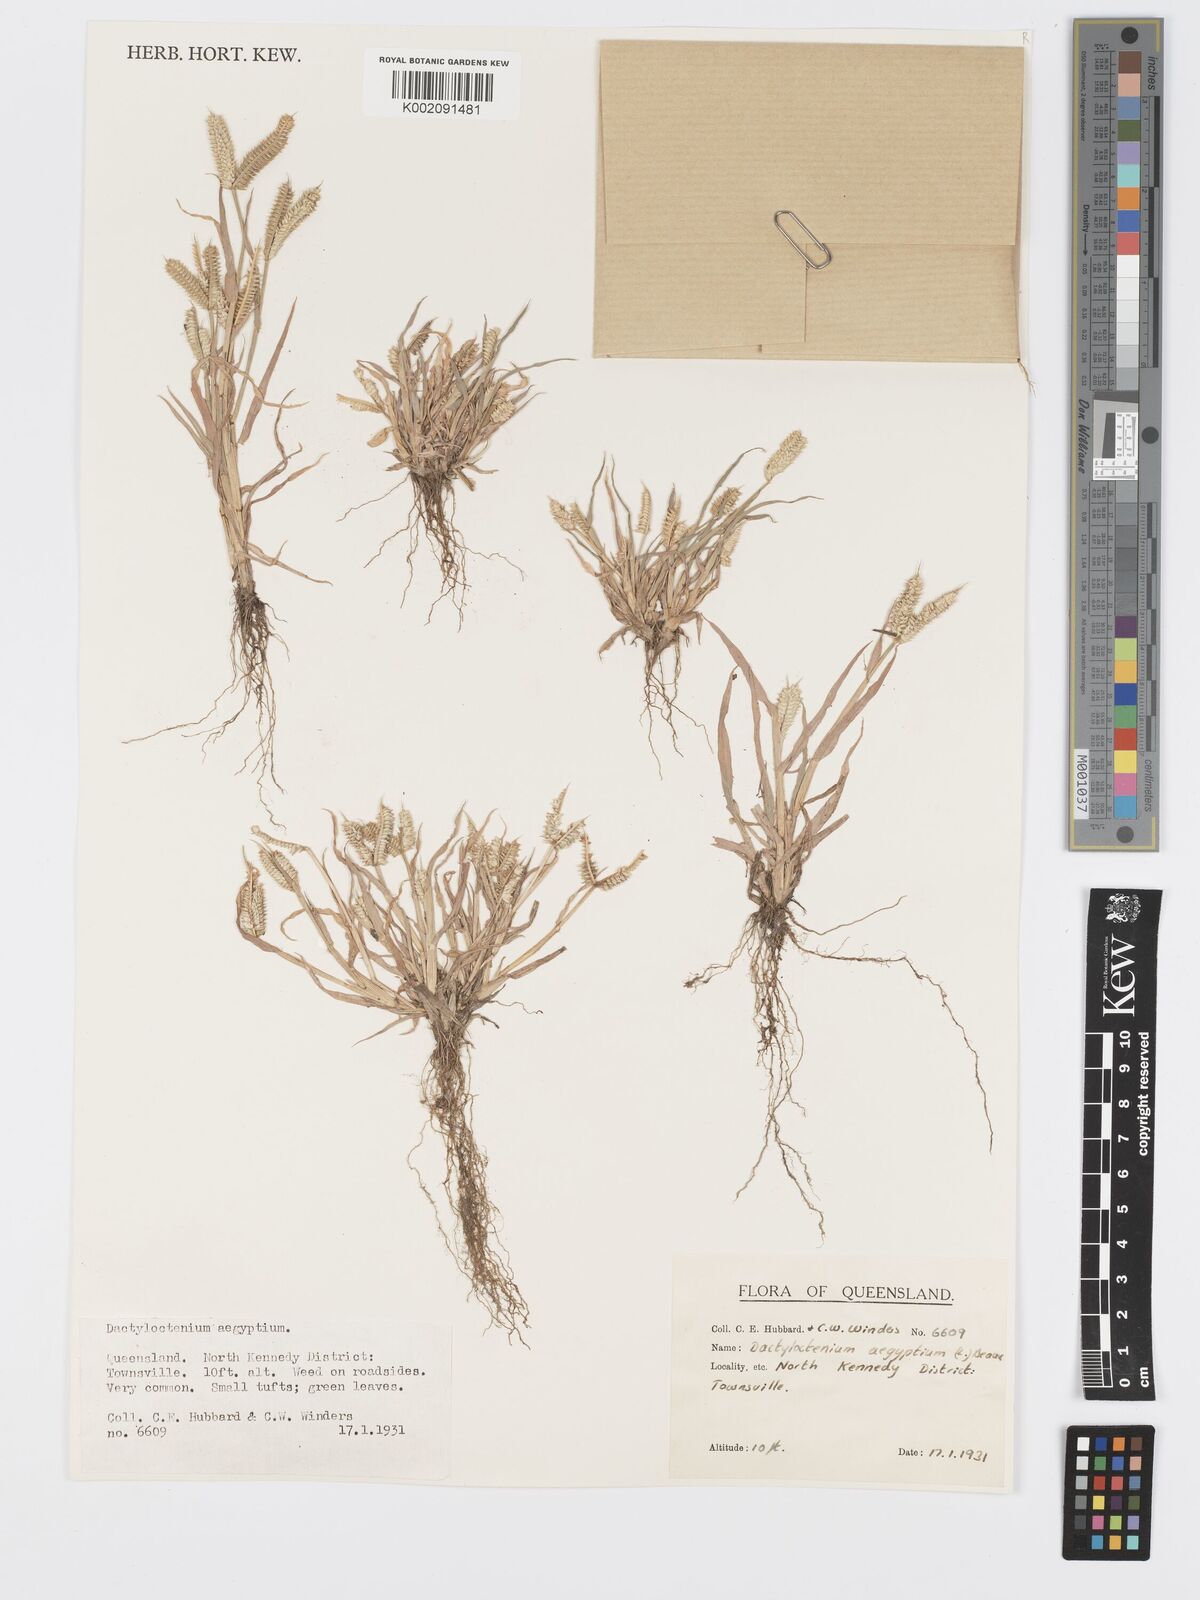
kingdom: Plantae
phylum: Tracheophyta
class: Liliopsida
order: Poales
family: Poaceae
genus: Dactyloctenium
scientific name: Dactyloctenium aegyptium
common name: Egyptian grass
